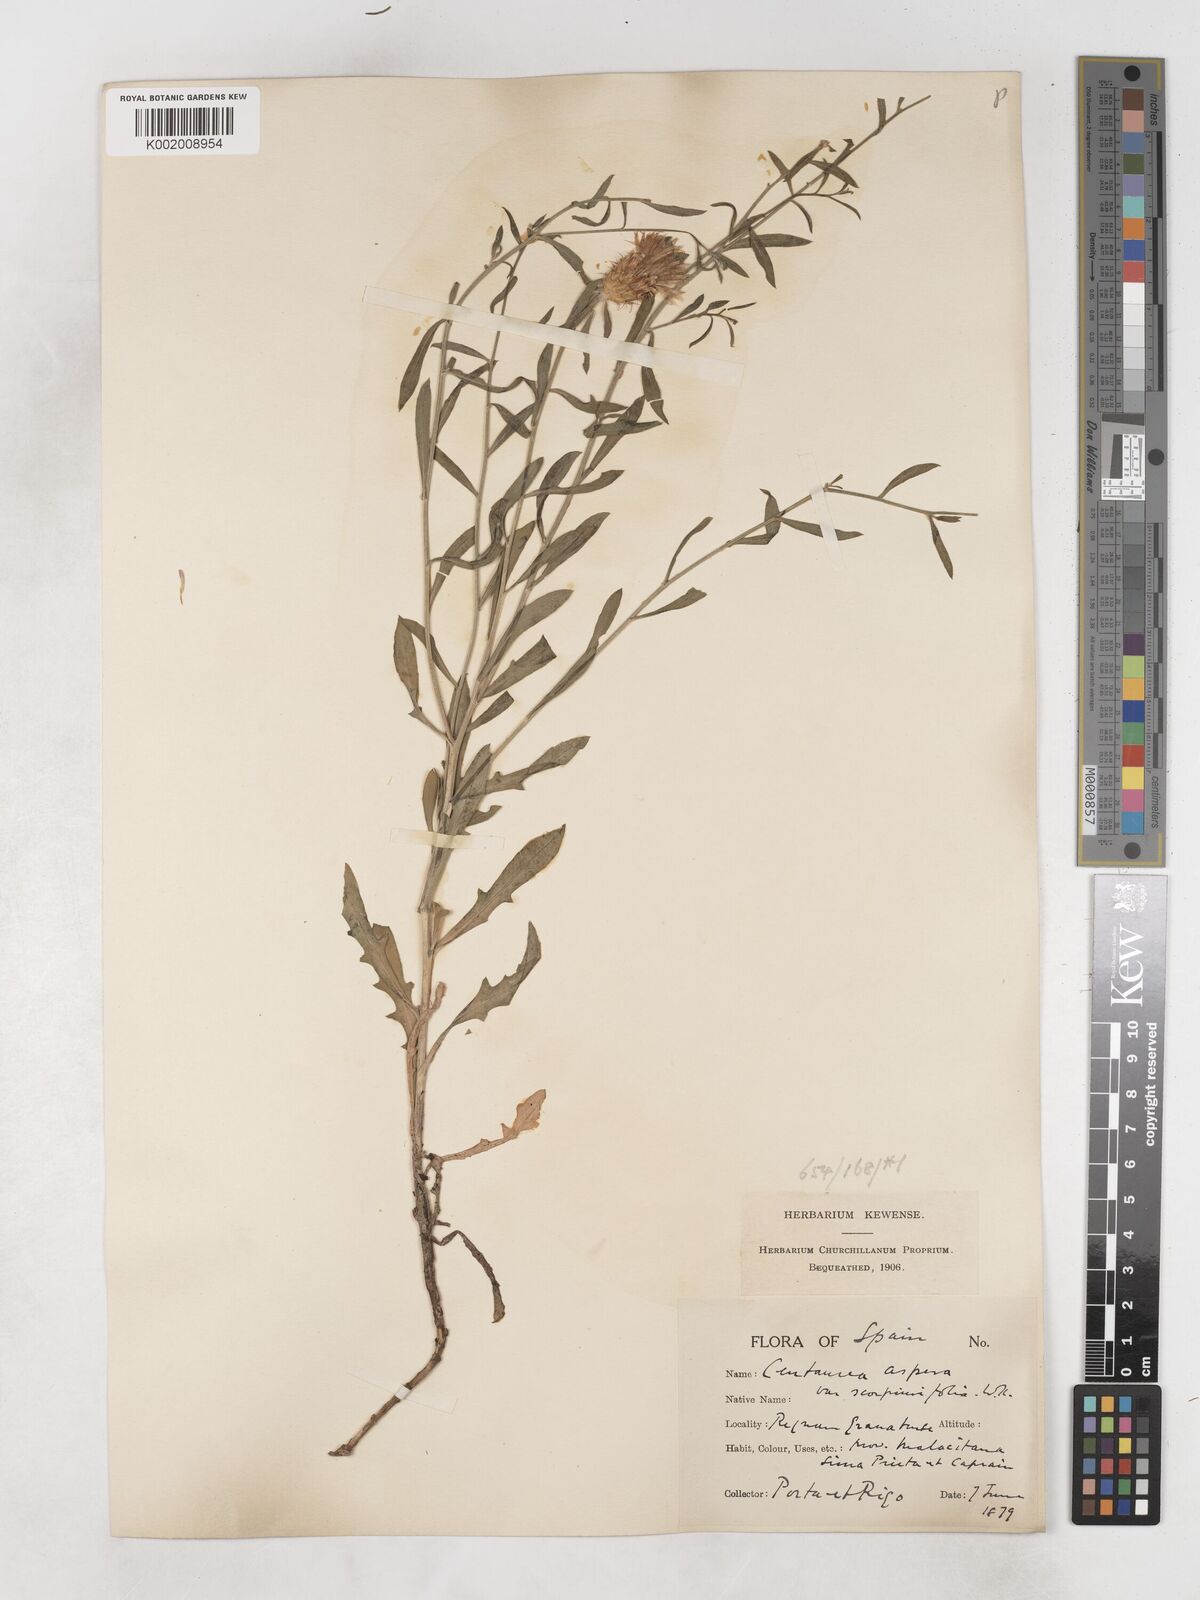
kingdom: Plantae
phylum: Tracheophyta
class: Magnoliopsida
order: Asterales
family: Asteraceae
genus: Centaurea
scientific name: Centaurea aspera
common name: Rough star-thistle
